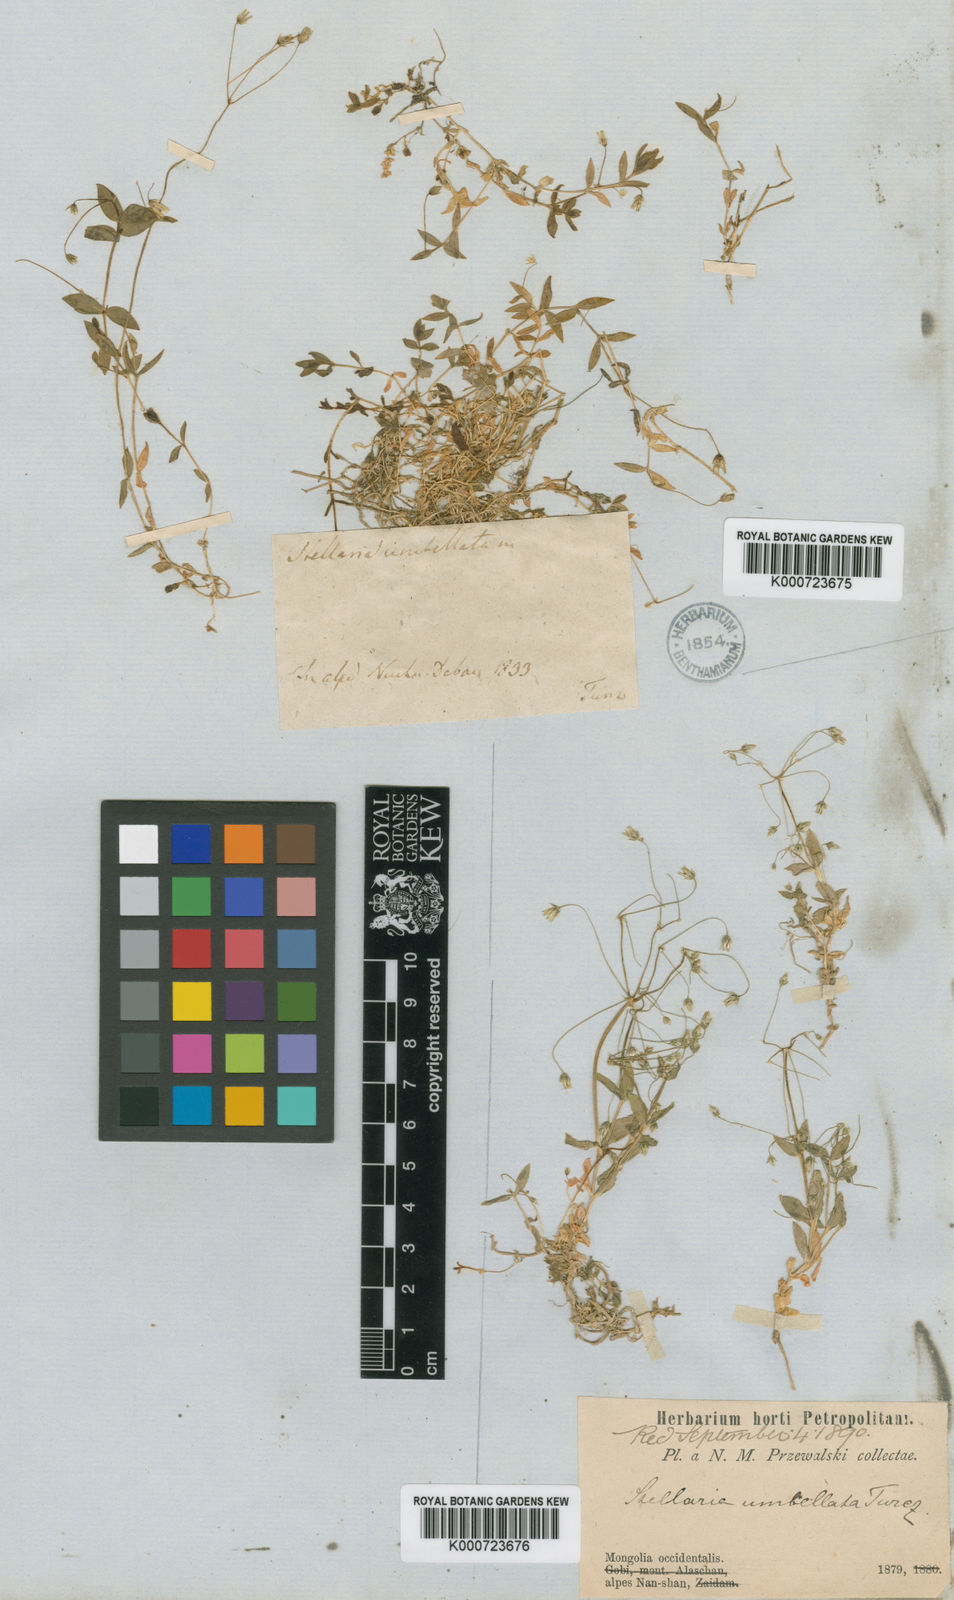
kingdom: Plantae
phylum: Tracheophyta
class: Magnoliopsida
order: Caryophyllales
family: Caryophyllaceae
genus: Stellaria
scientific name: Stellaria
